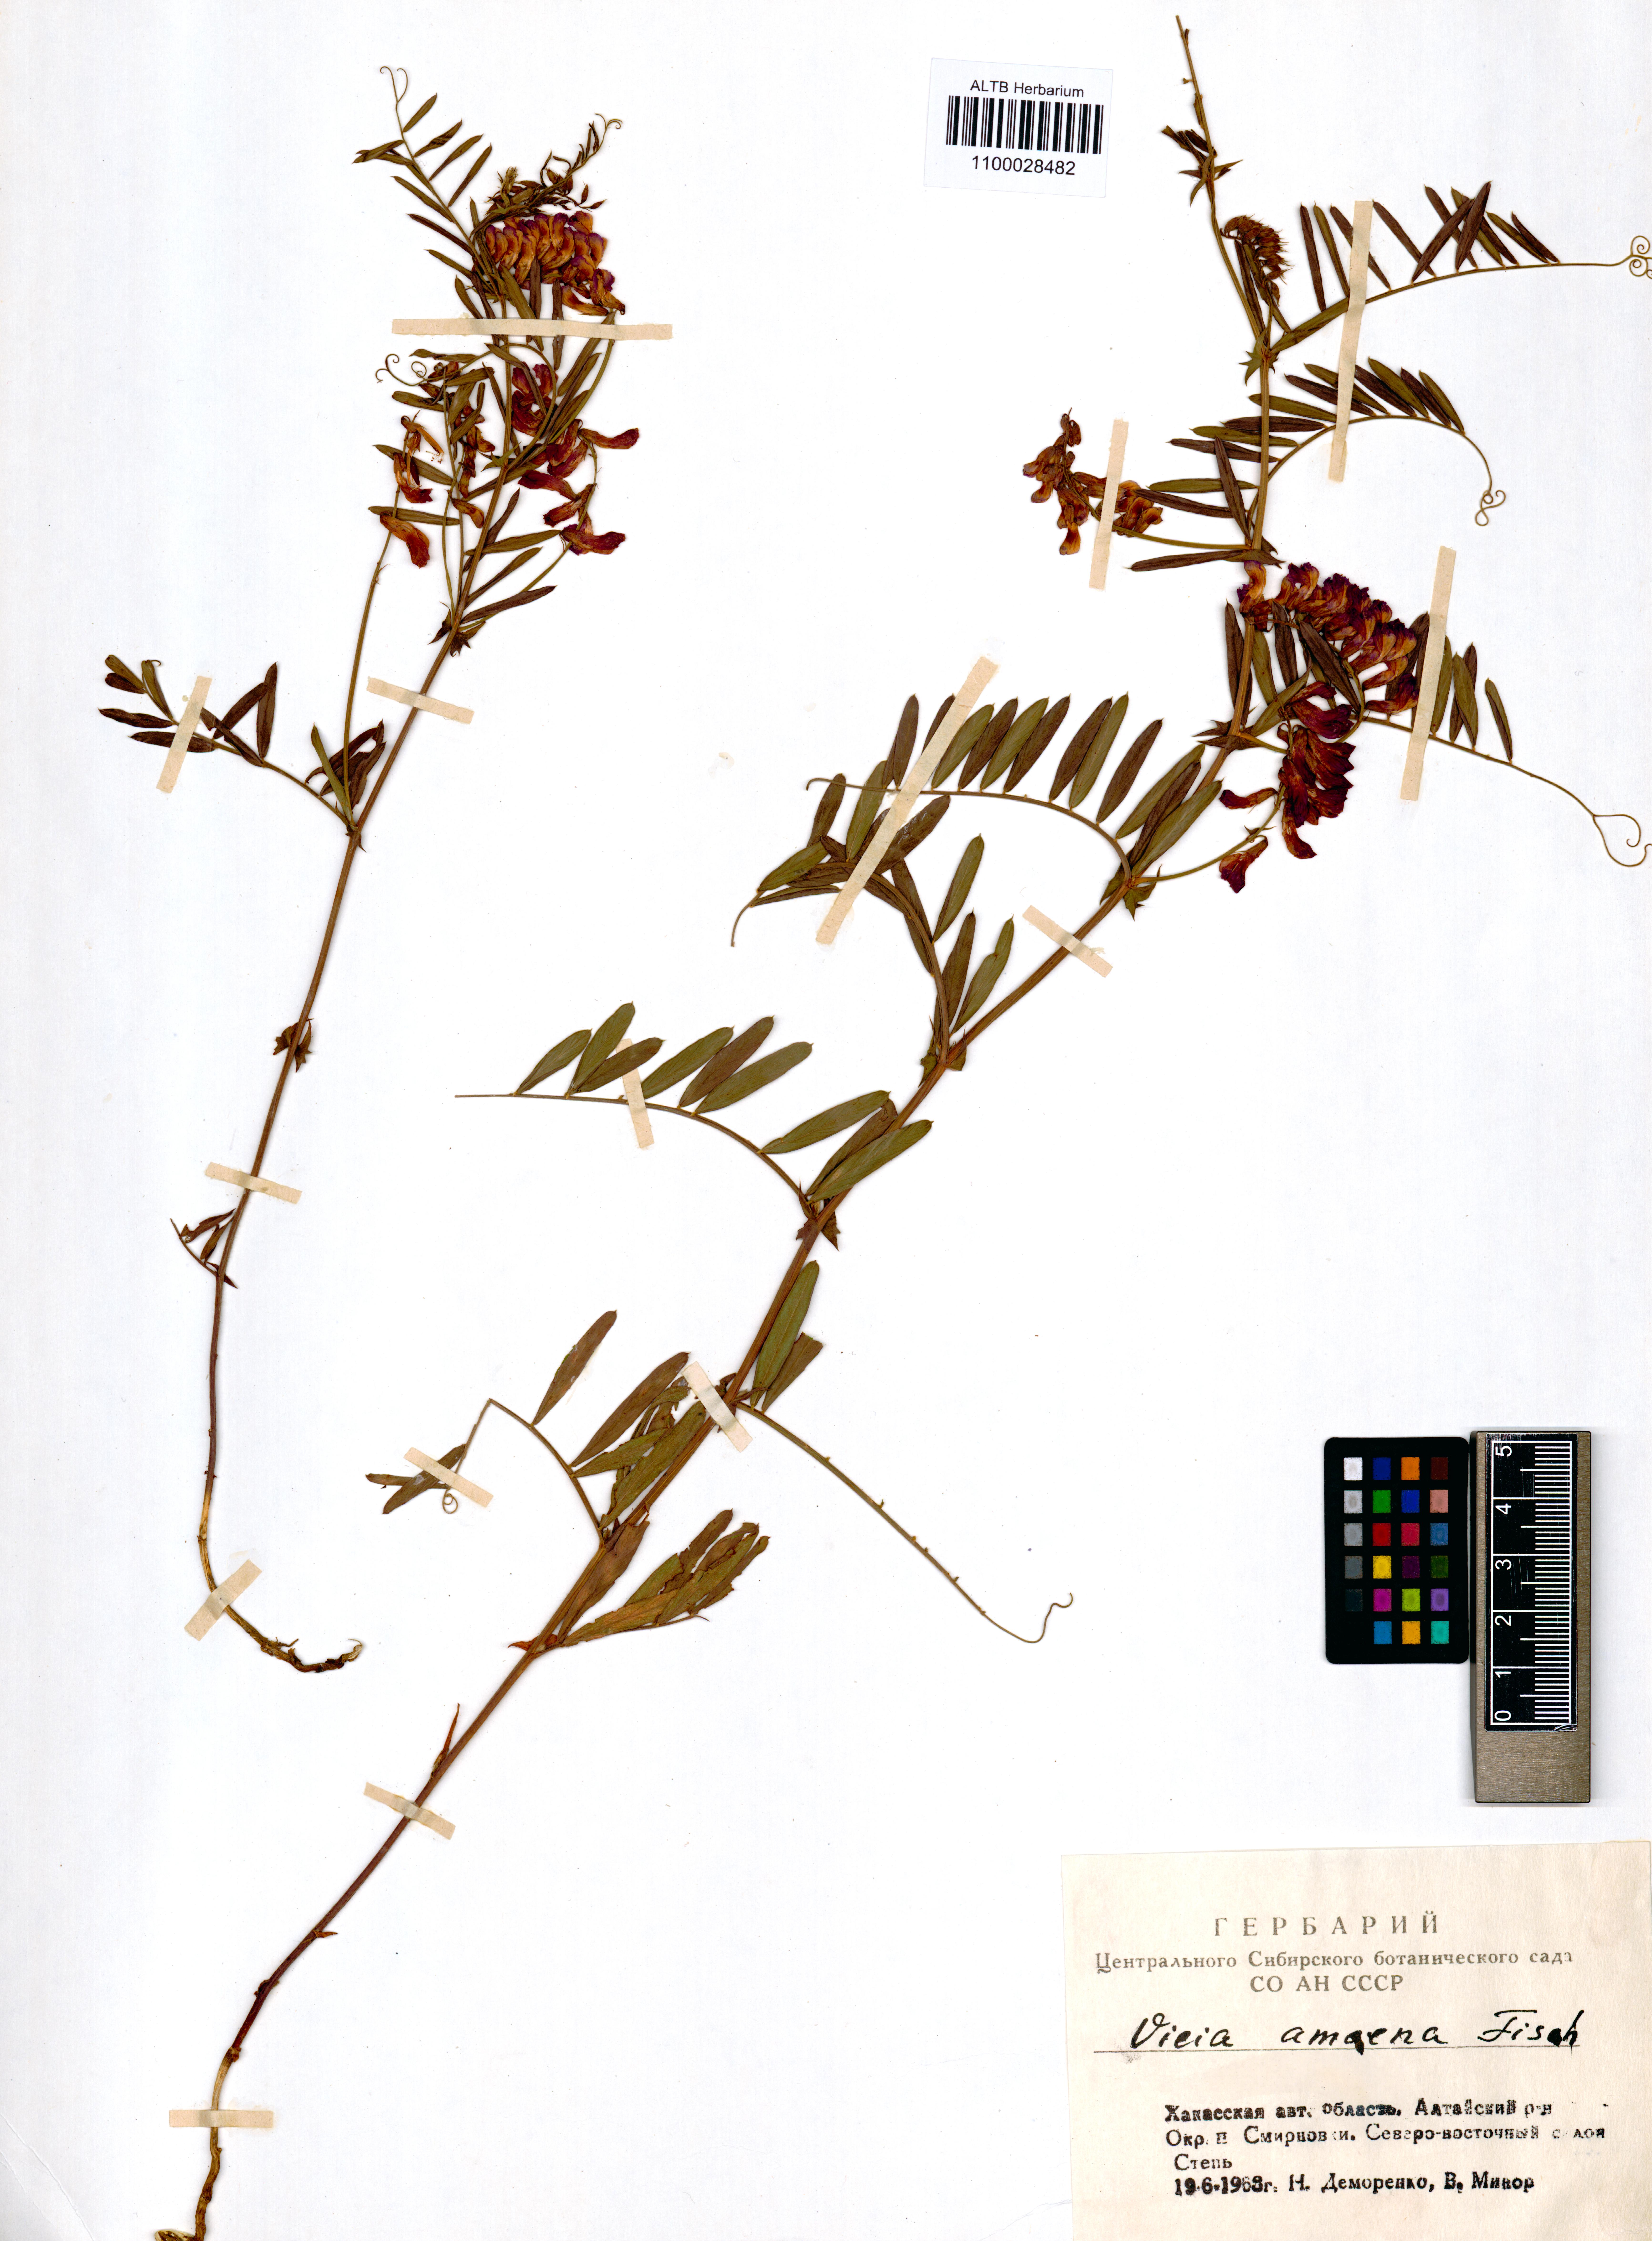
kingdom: Plantae
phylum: Tracheophyta
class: Magnoliopsida
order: Fabales
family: Fabaceae
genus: Vicia
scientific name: Vicia amoena
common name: Cheder ebs
